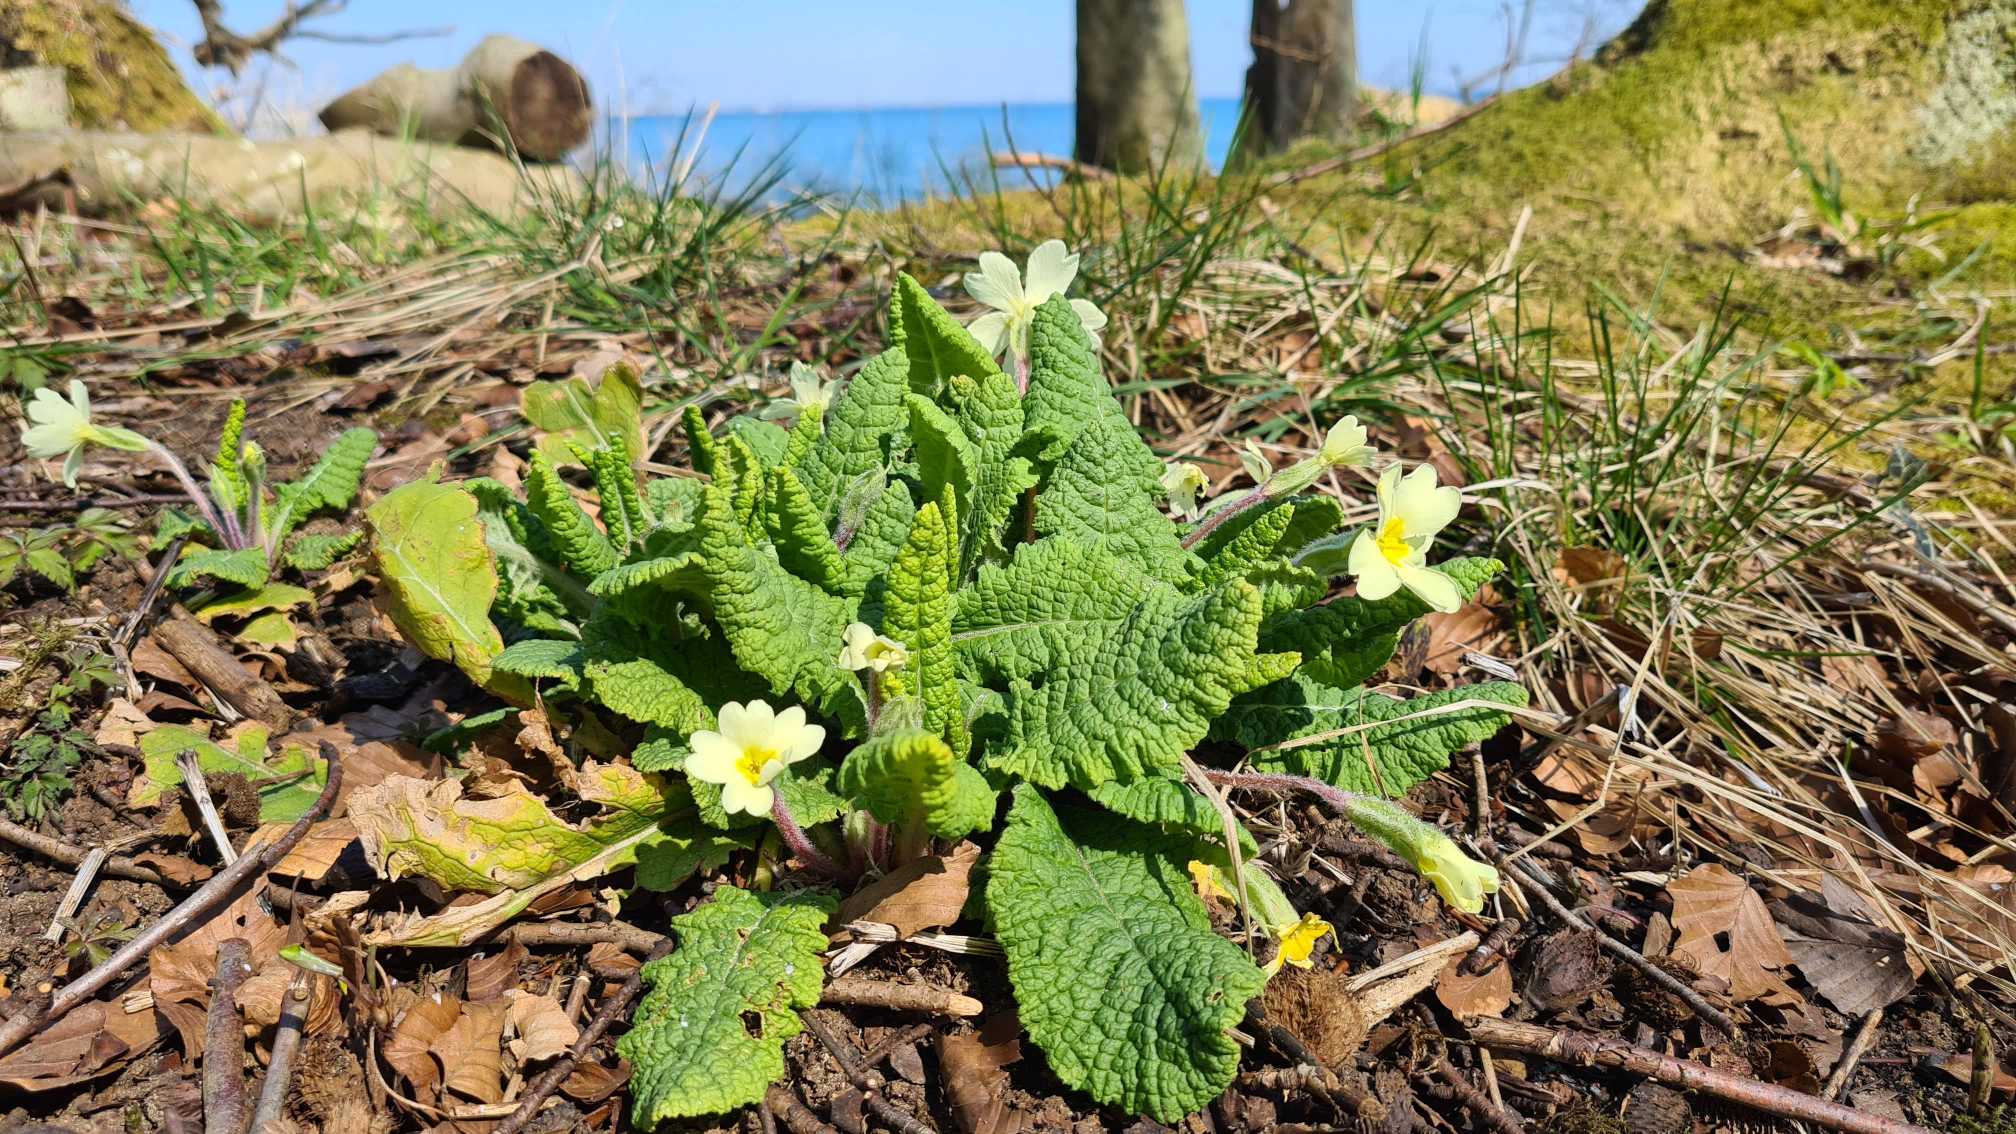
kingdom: Plantae
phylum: Tracheophyta
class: Magnoliopsida
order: Ericales
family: Primulaceae
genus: Primula
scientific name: Primula vulgaris
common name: Storblomstret kodriver
